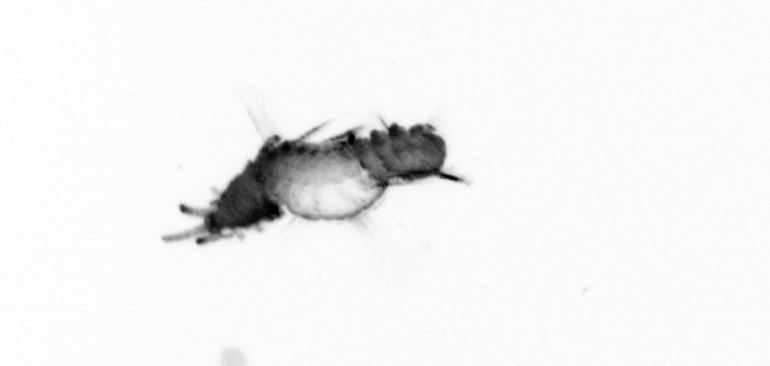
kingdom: Animalia
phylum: Annelida
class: Polychaeta
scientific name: Polychaeta
